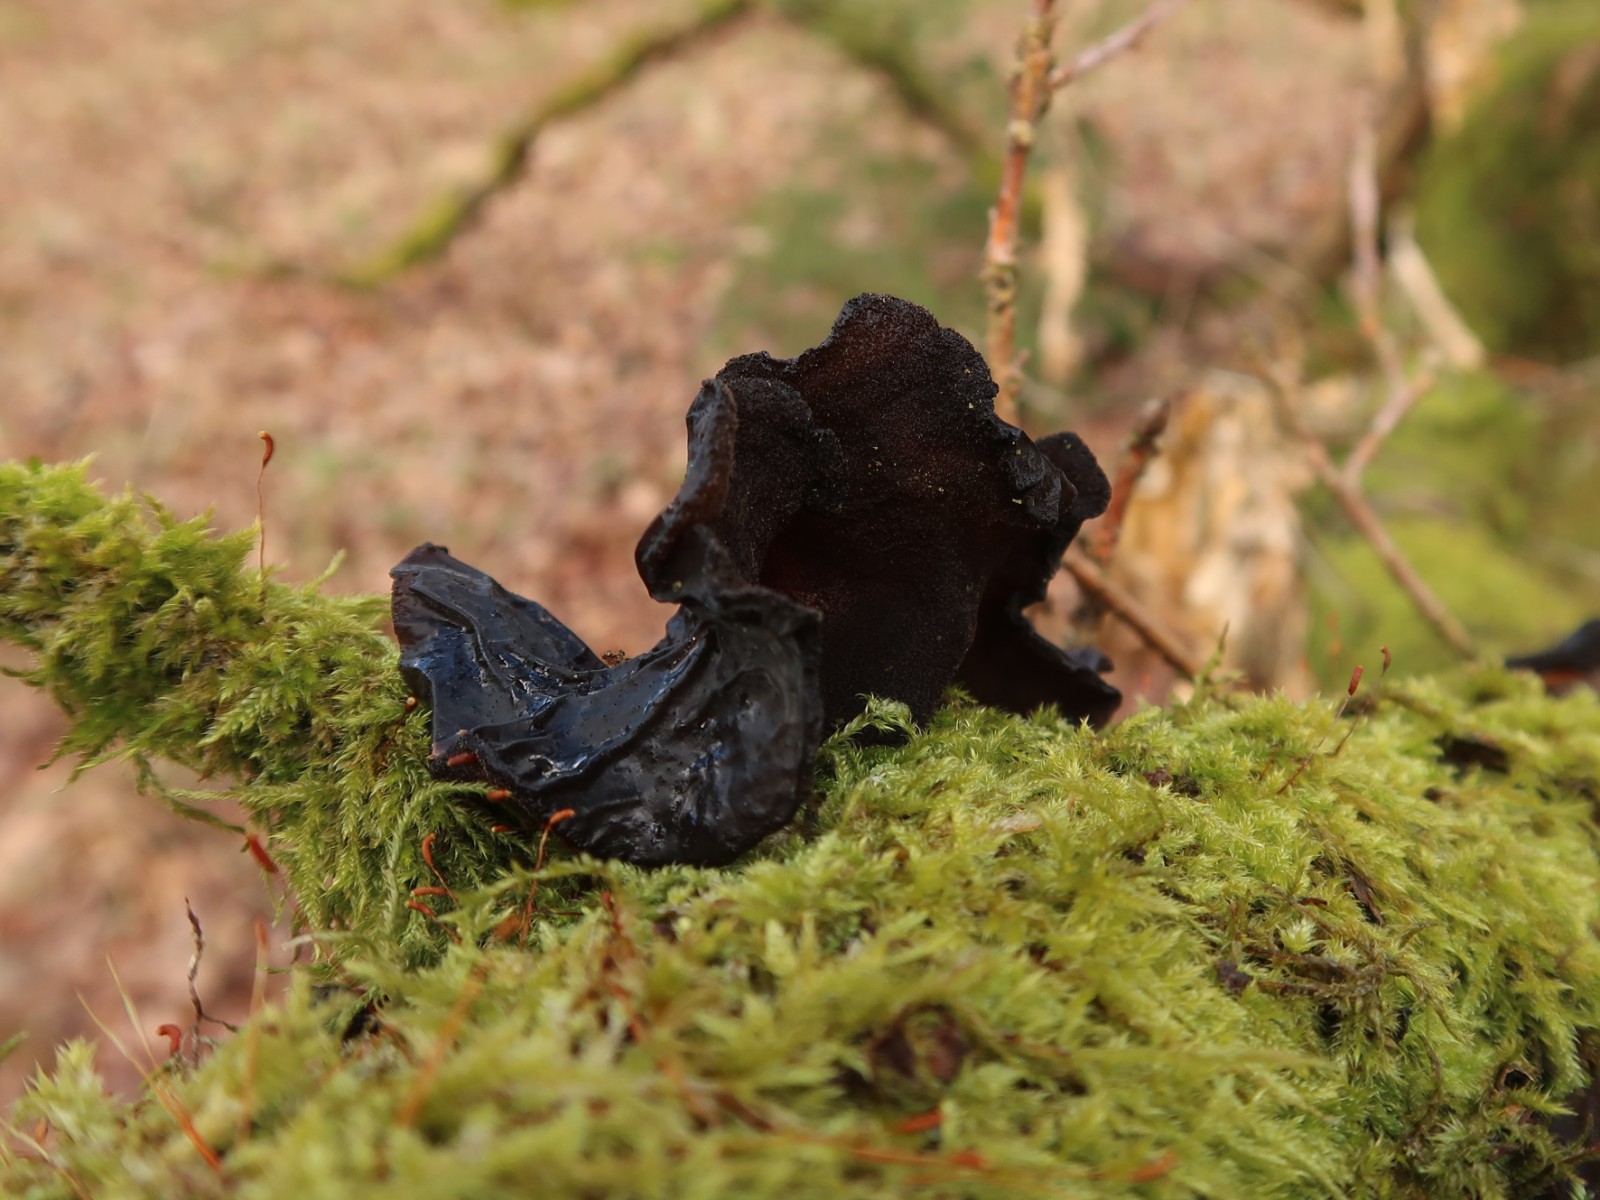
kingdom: Fungi
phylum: Basidiomycota
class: Agaricomycetes
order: Auriculariales
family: Auriculariaceae
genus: Exidia
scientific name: Exidia glandulosa
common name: ege-bævretop
